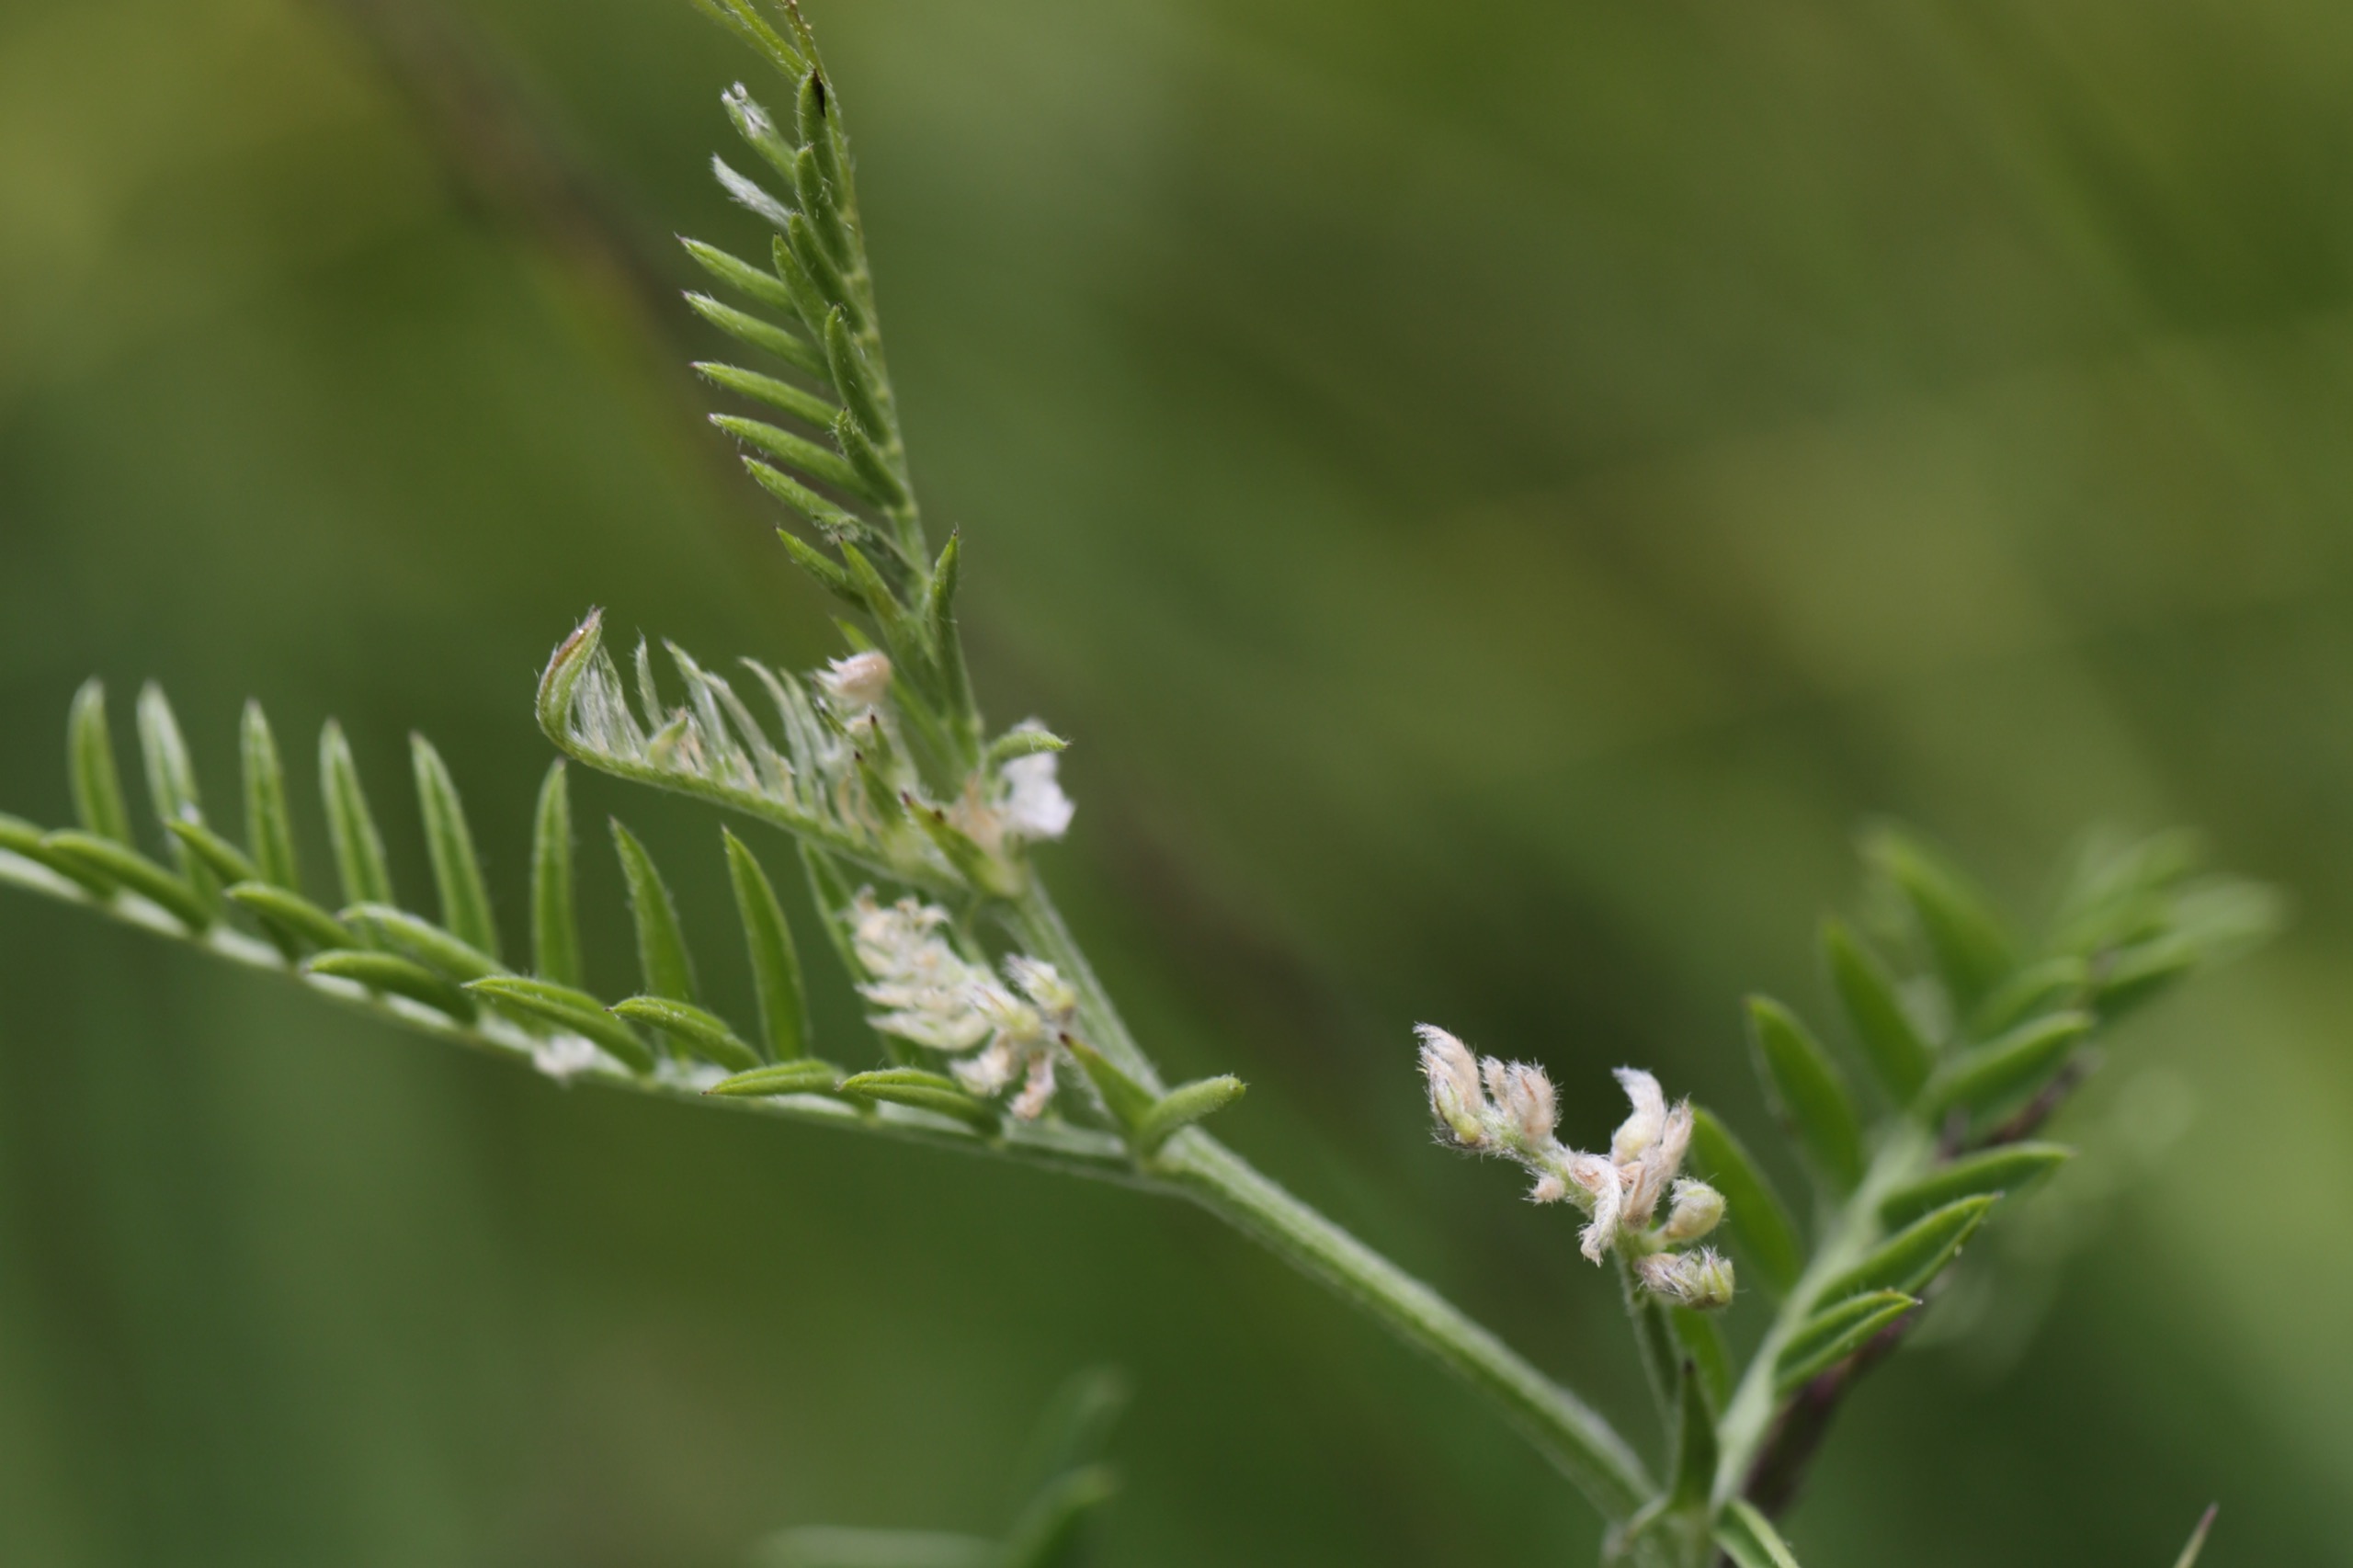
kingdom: Plantae
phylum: Tracheophyta
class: Magnoliopsida
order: Fabales
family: Fabaceae
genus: Vicia
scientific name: Vicia hirsuta
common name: Tofrøet vikke
